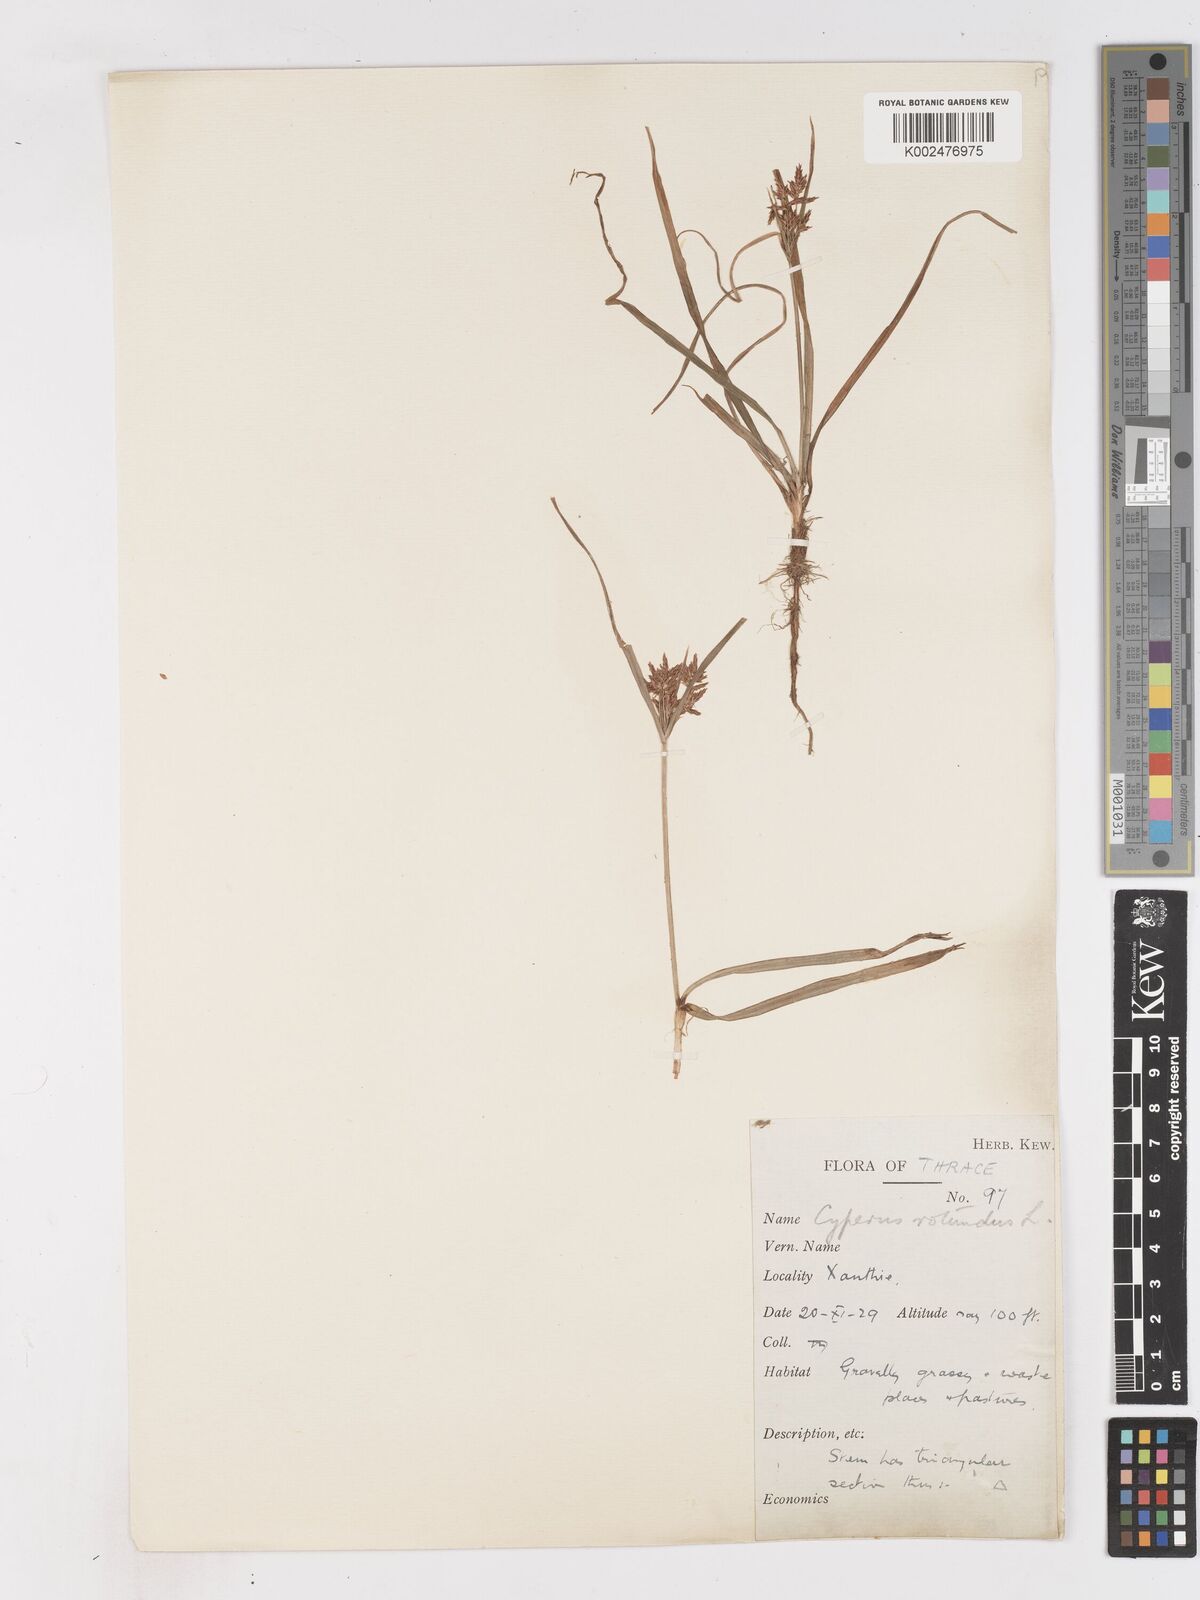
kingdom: Plantae
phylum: Tracheophyta
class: Liliopsida
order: Poales
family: Cyperaceae
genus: Cyperus
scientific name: Cyperus rotundus
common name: Nutgrass
